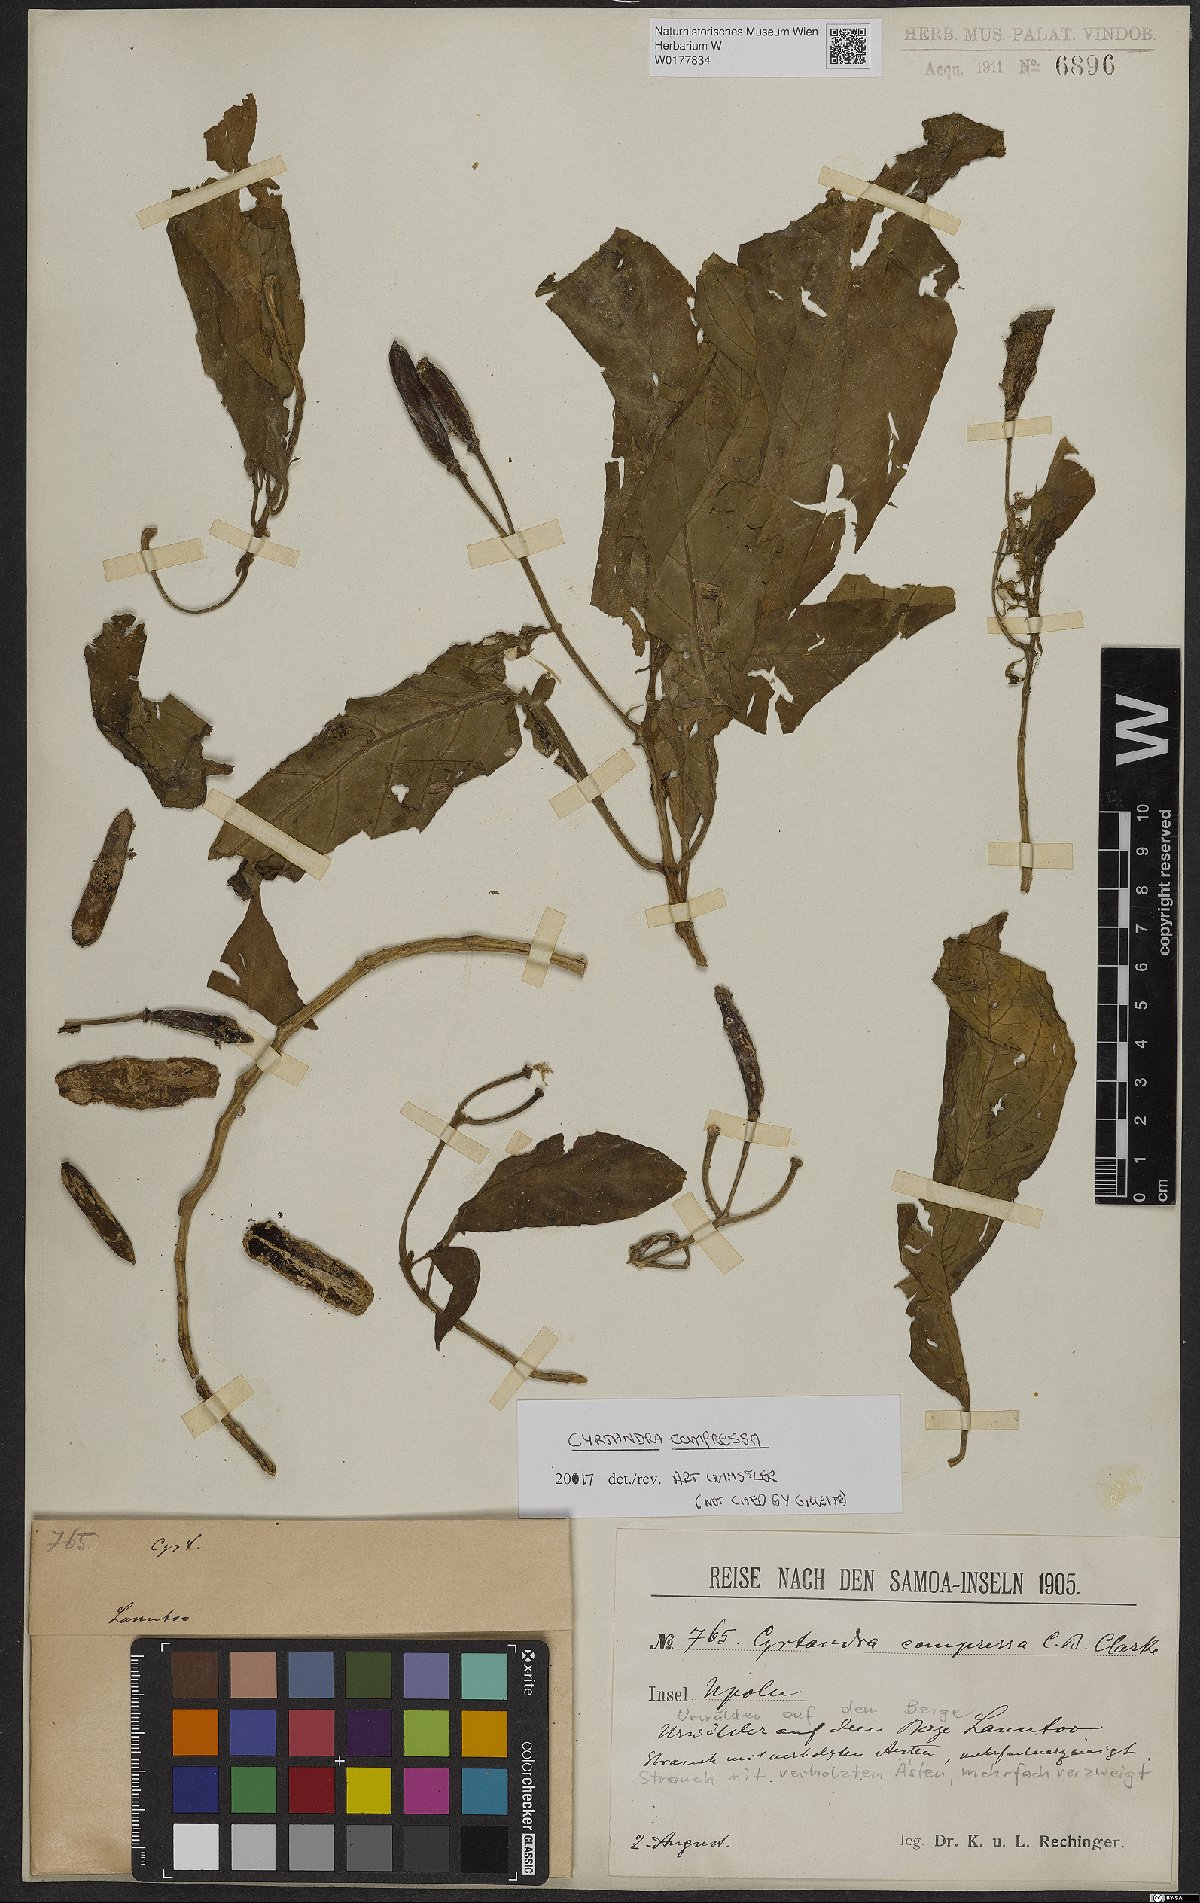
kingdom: Plantae
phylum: Tracheophyta
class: Magnoliopsida
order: Lamiales
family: Gesneriaceae
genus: Cyrtandra
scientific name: Cyrtandra compressa
